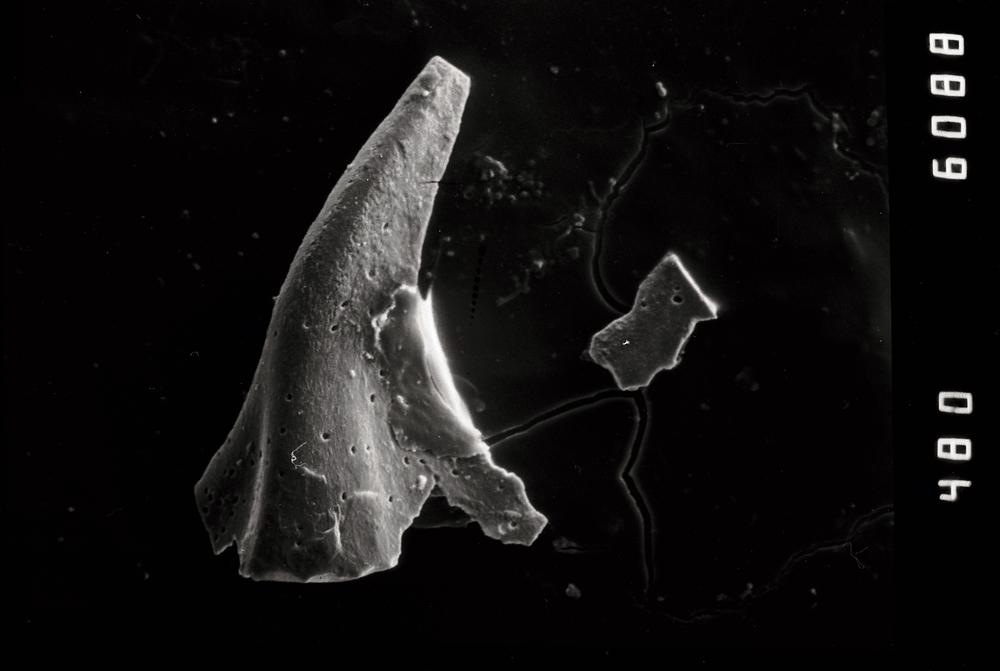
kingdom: Animalia
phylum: Chordata
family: Balognathidae
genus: Baltoniodus
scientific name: Baltoniodus
